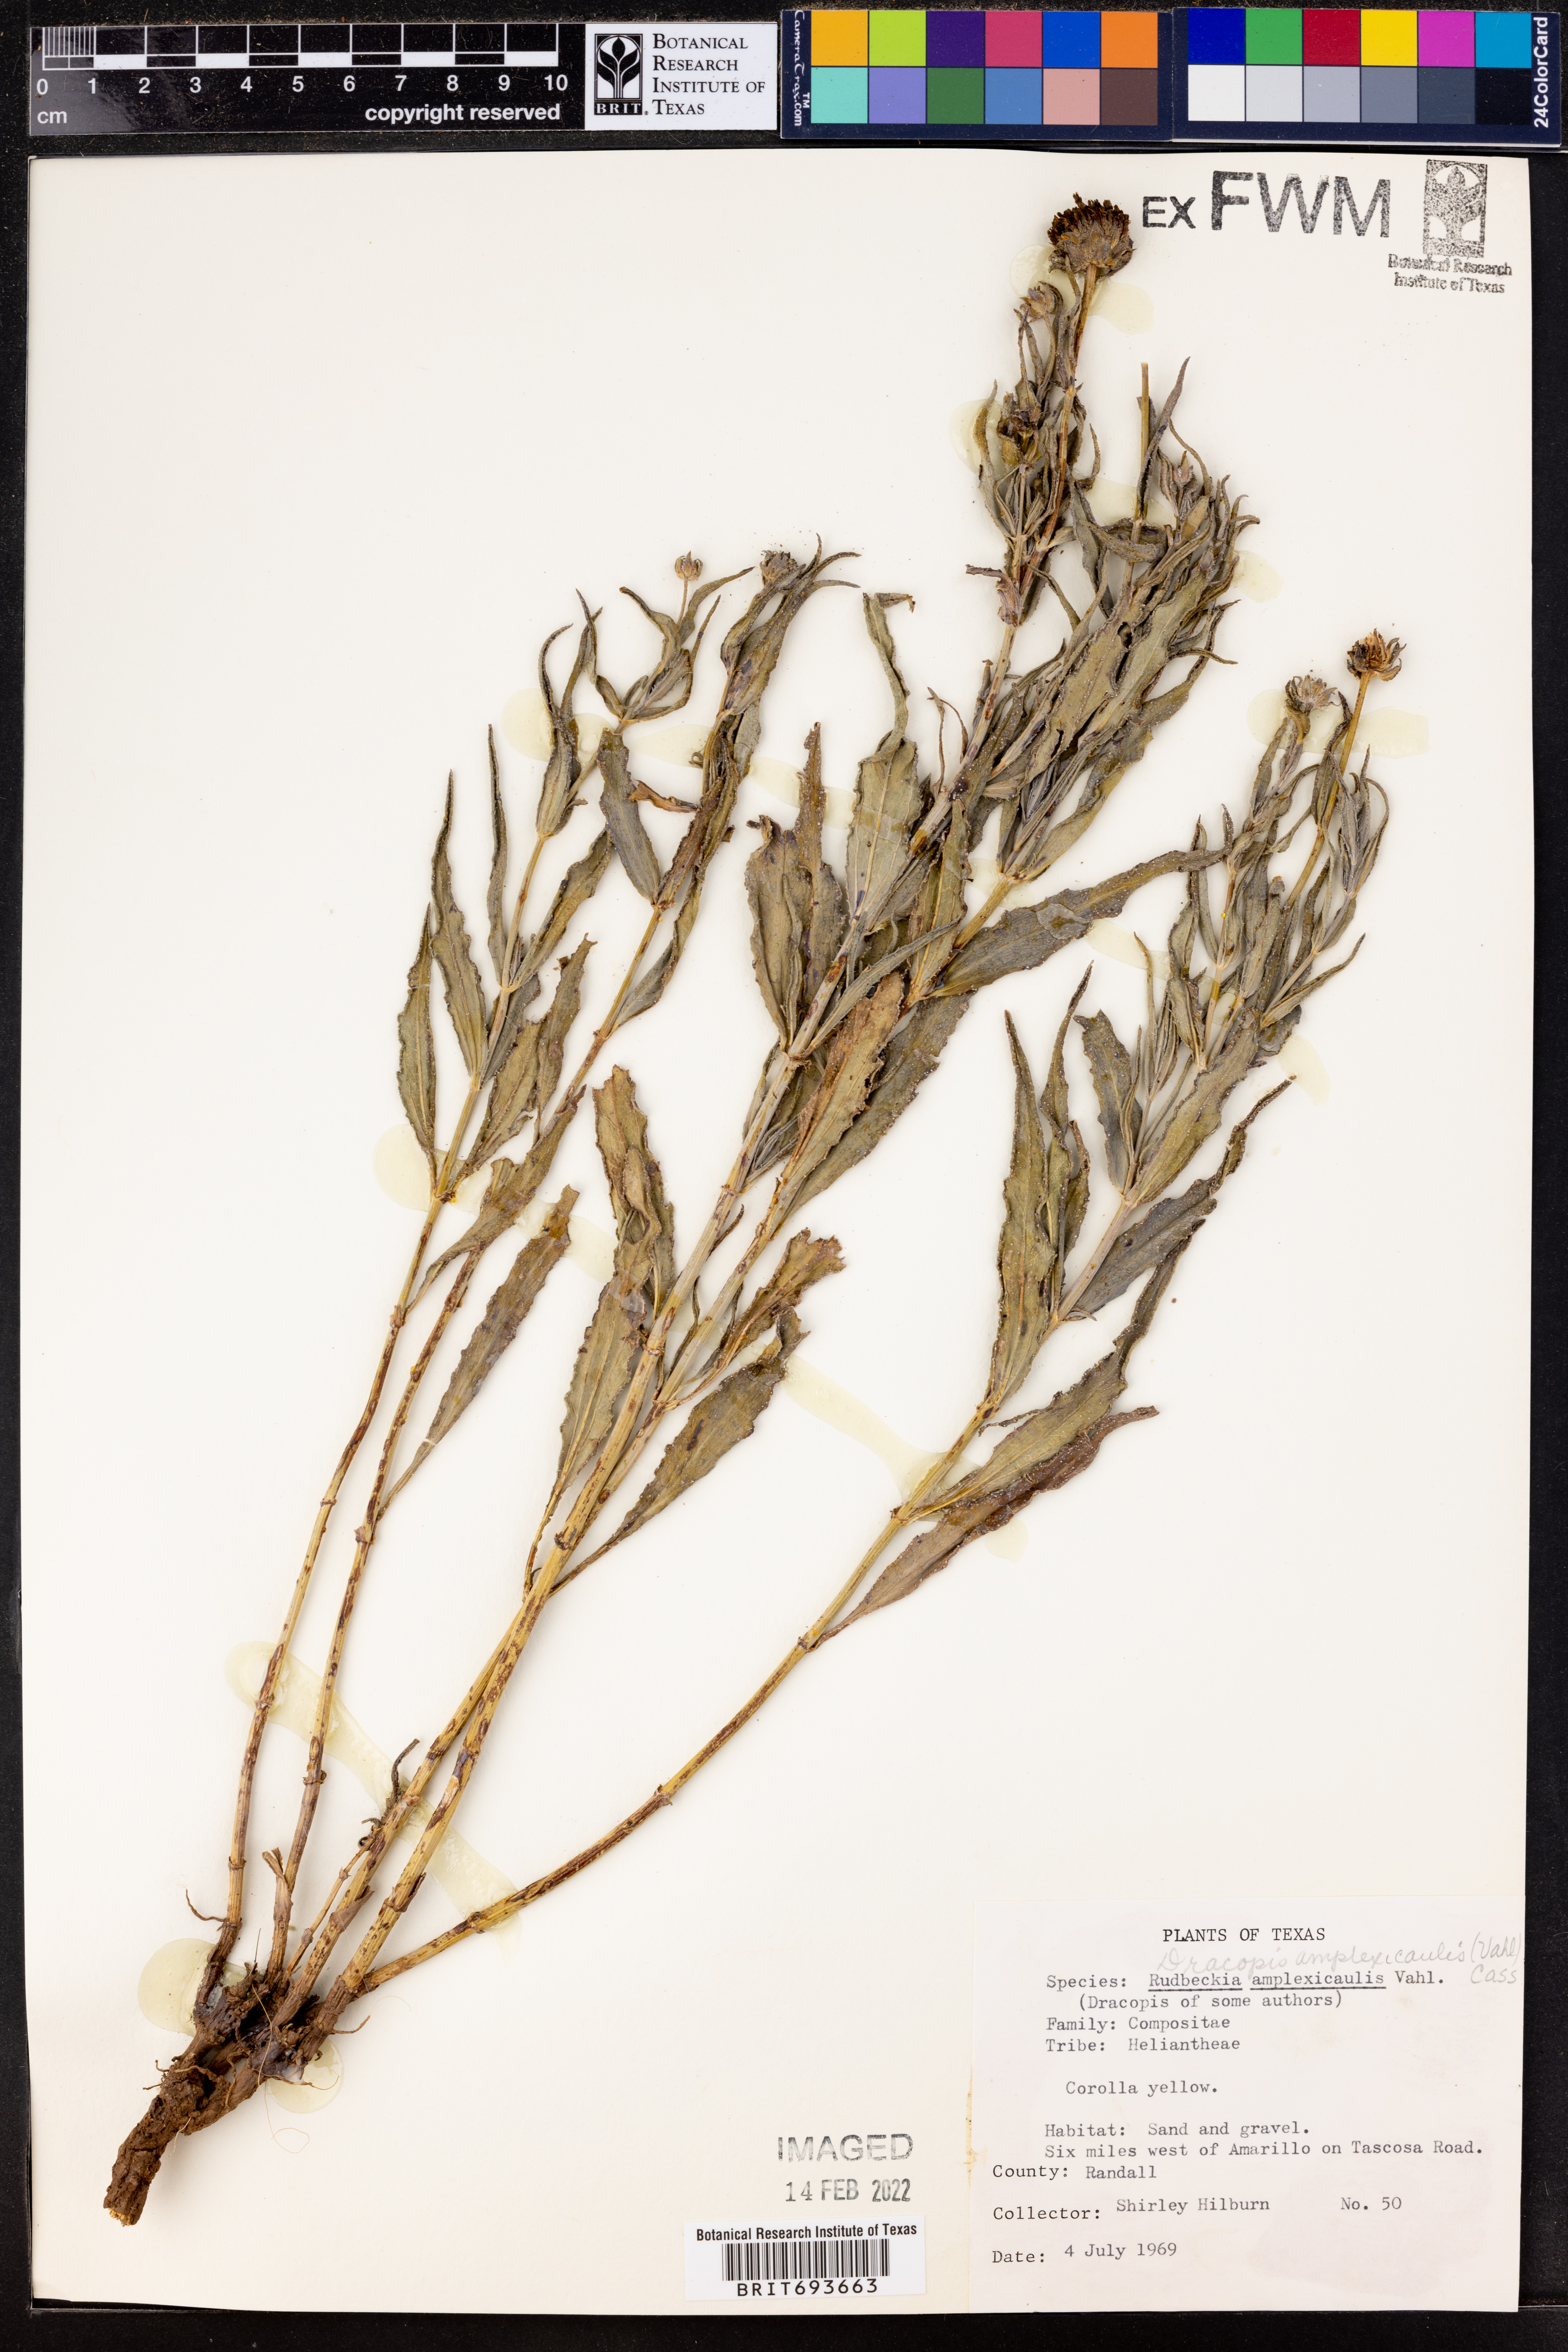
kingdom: Plantae
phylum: Tracheophyta
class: Magnoliopsida
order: Asterales
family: Asteraceae
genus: Rudbeckia
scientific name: Rudbeckia amplexicaulis
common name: Clasping-leaf coneflower
